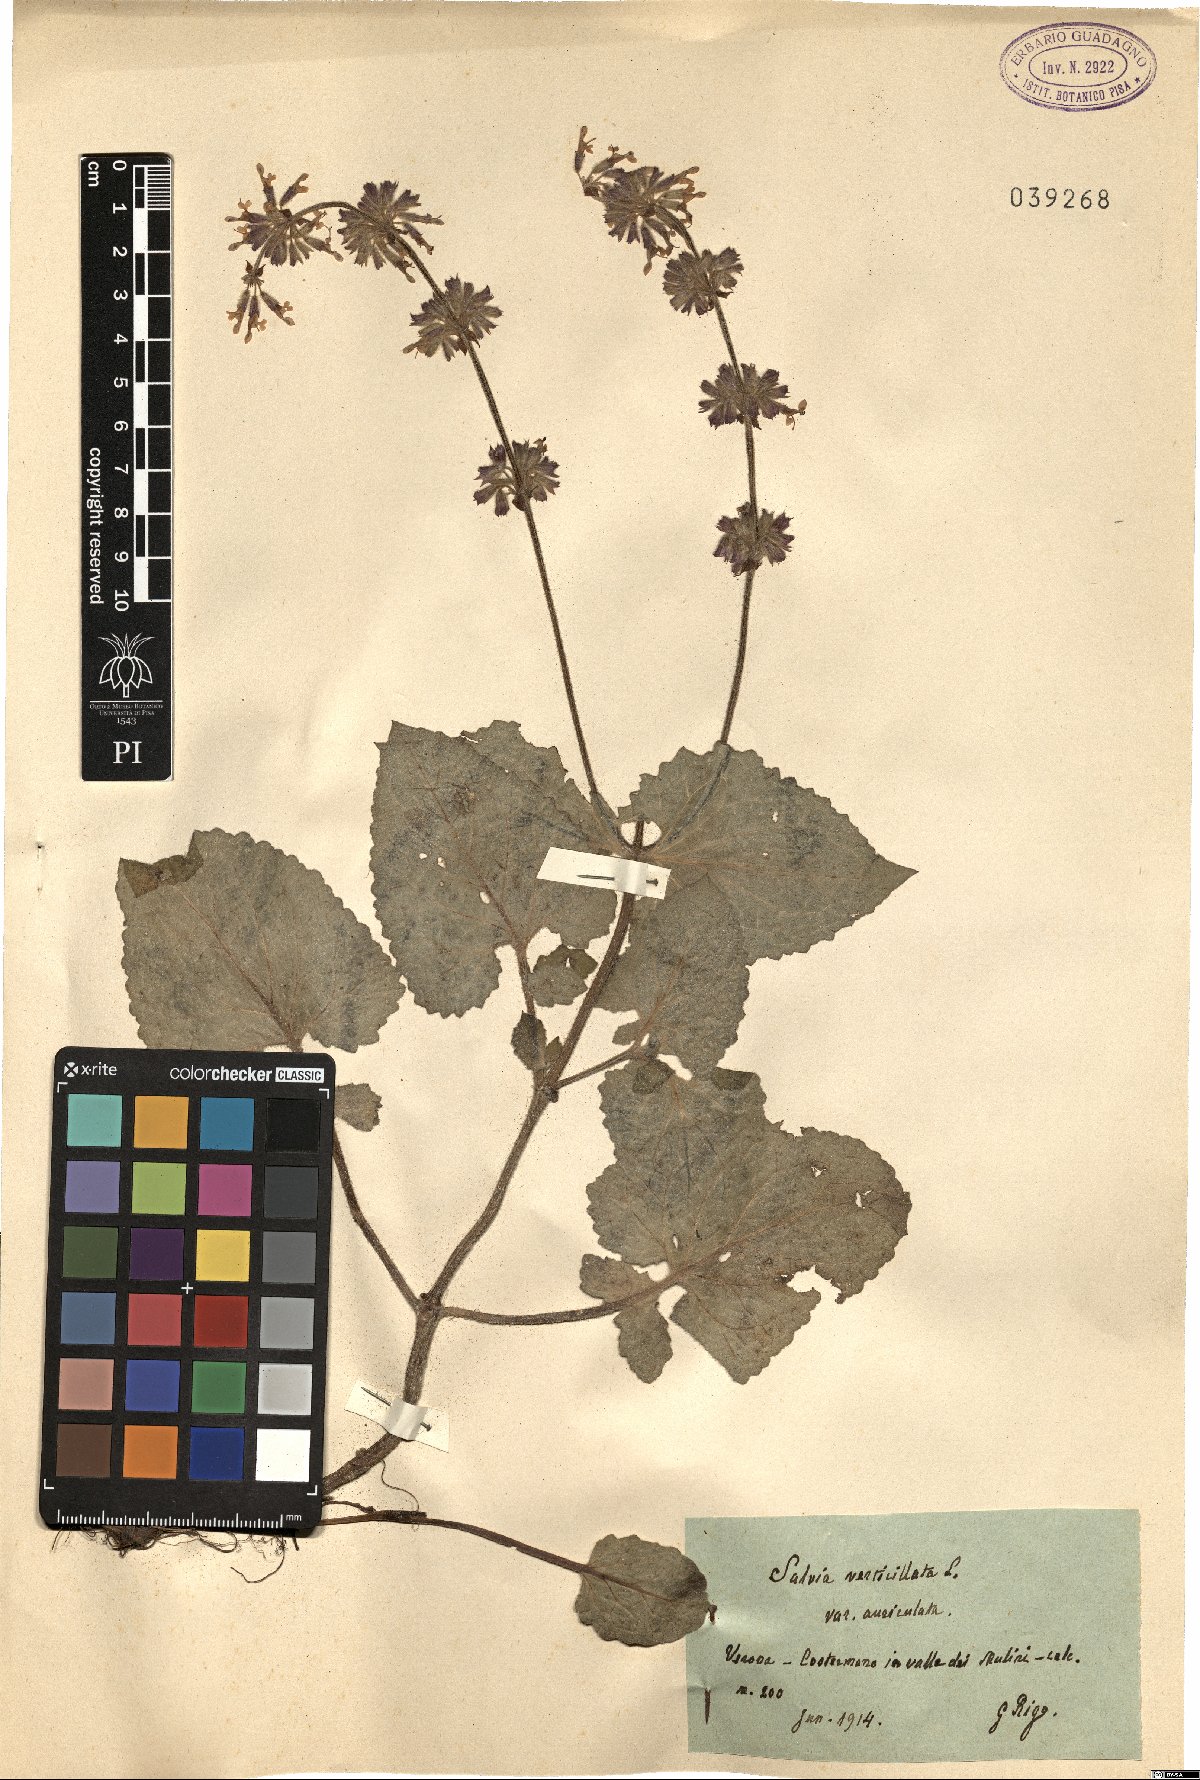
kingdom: Plantae
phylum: Tracheophyta
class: Magnoliopsida
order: Lamiales
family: Lamiaceae
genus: Salvia
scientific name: Salvia verticillata
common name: Whorled clary
